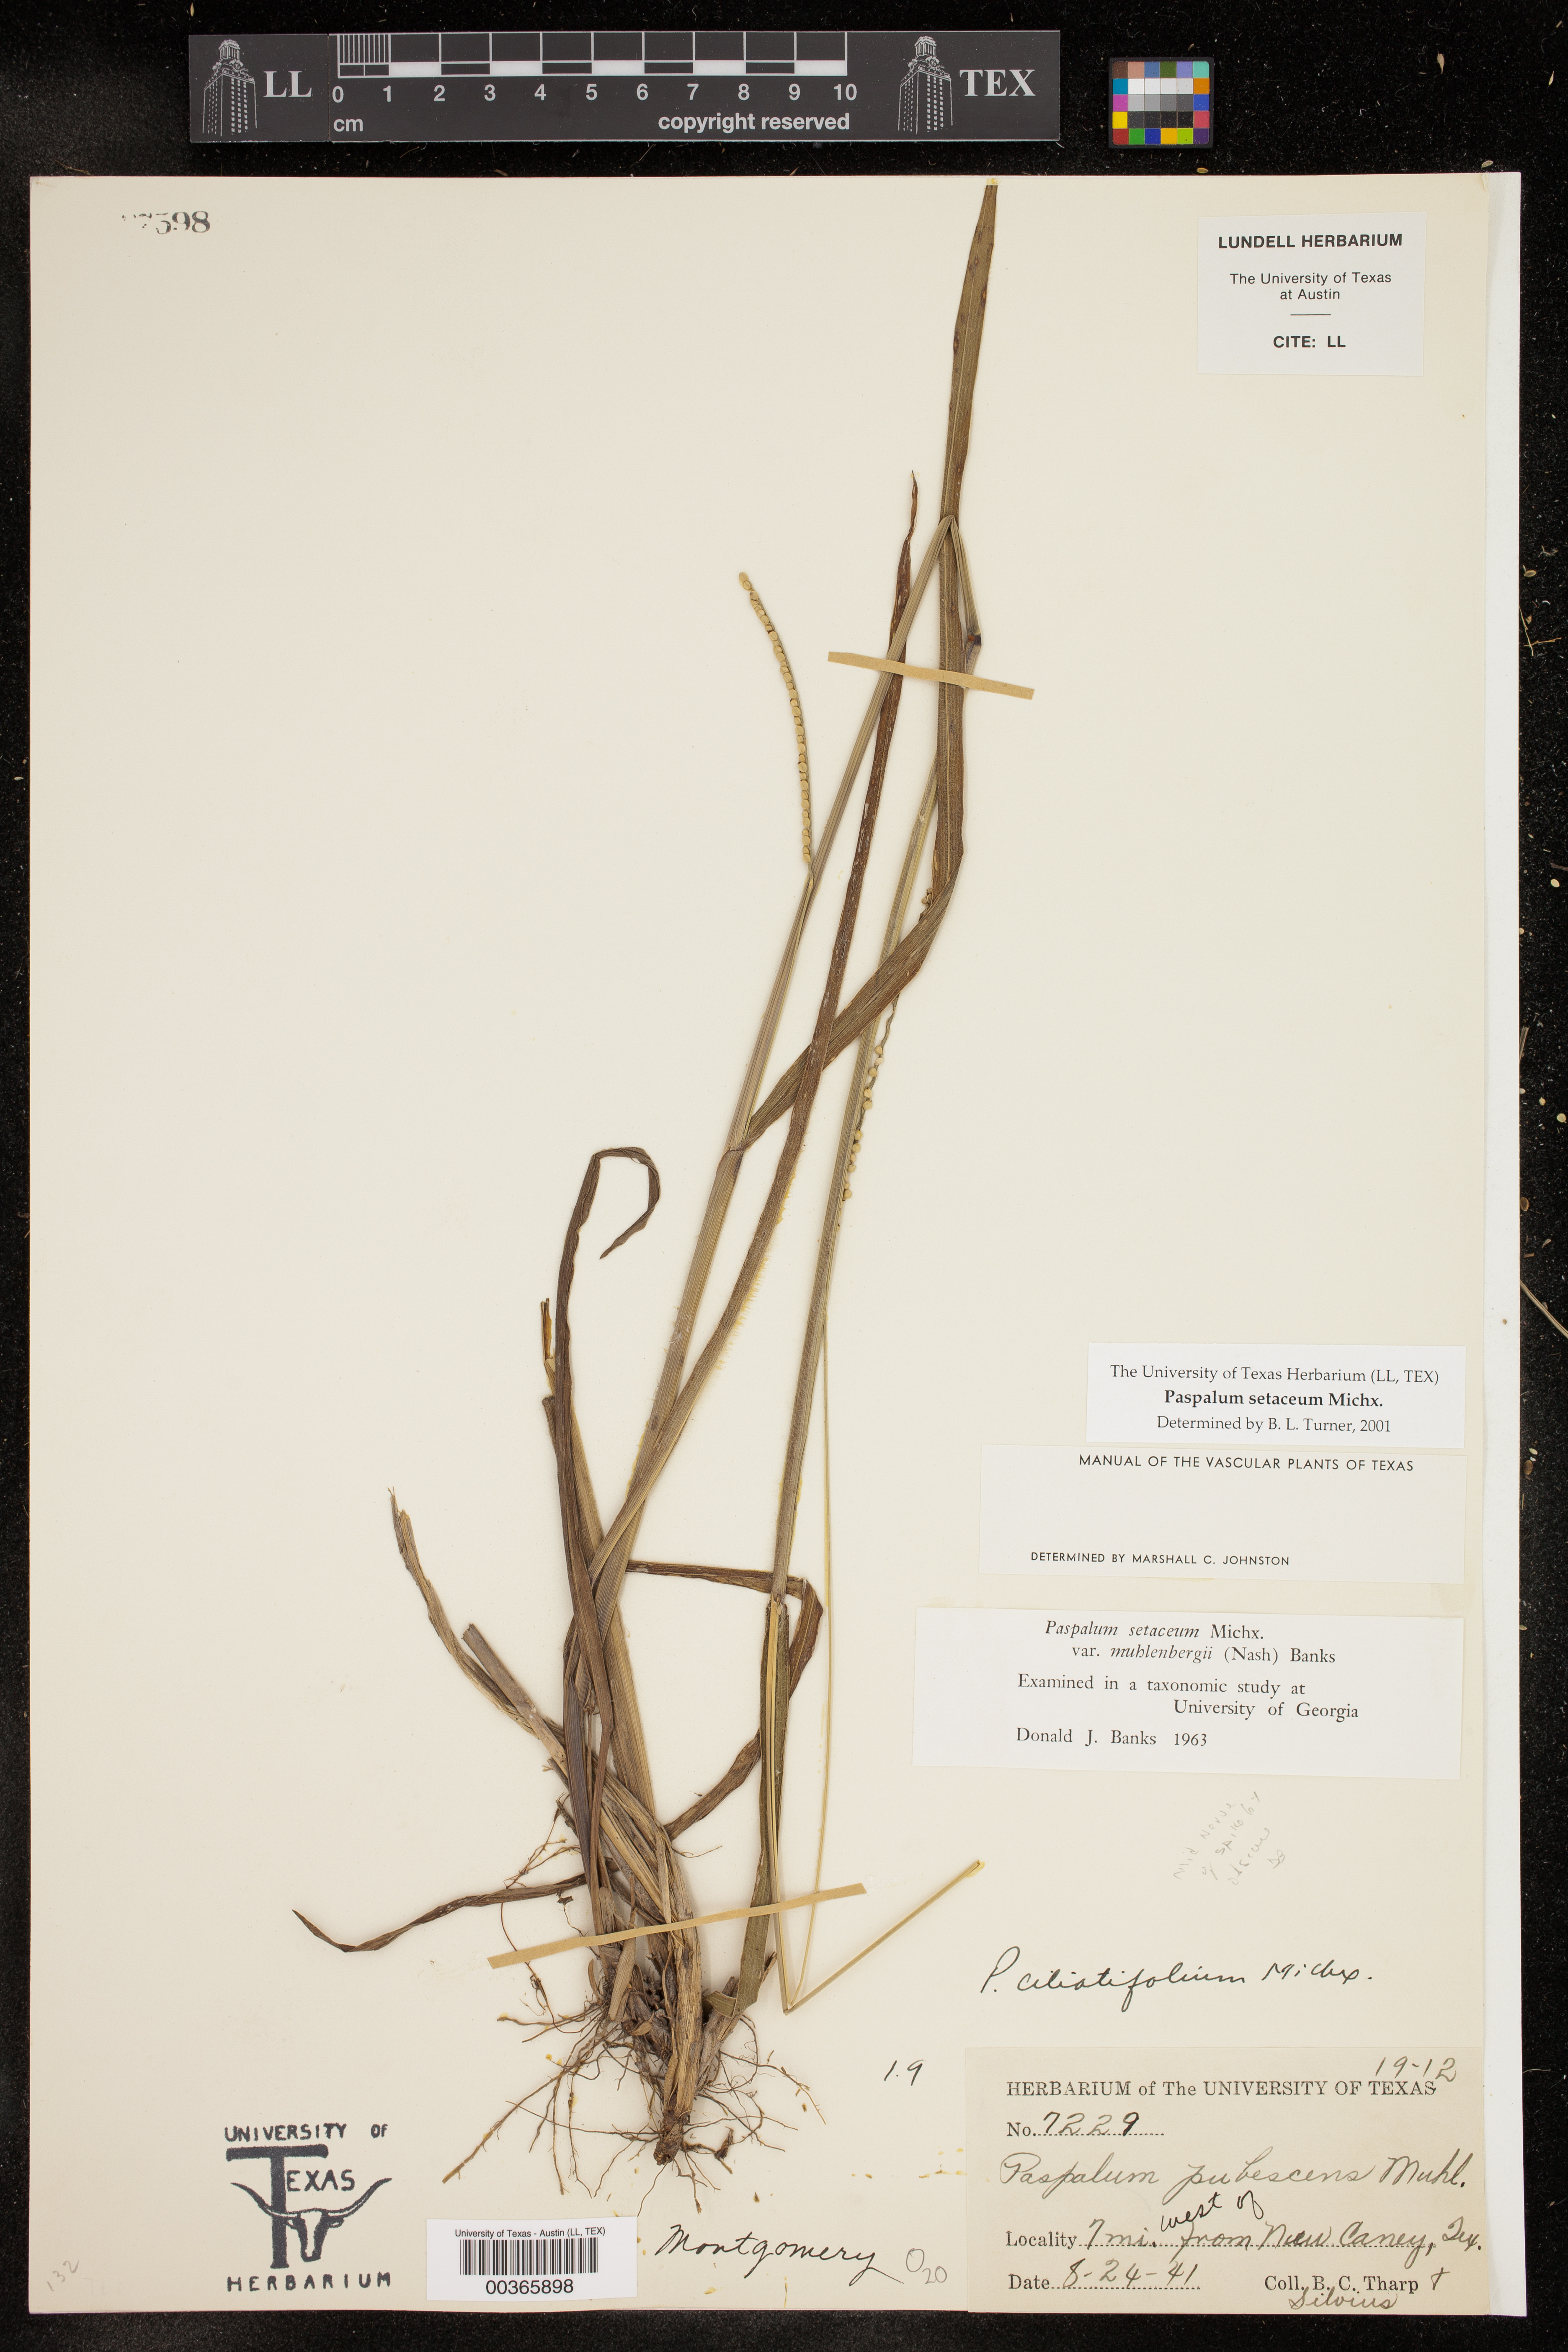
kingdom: Plantae
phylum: Tracheophyta
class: Liliopsida
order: Poales
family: Poaceae
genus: Paspalum
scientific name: Paspalum setaceum
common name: Slender paspalum
